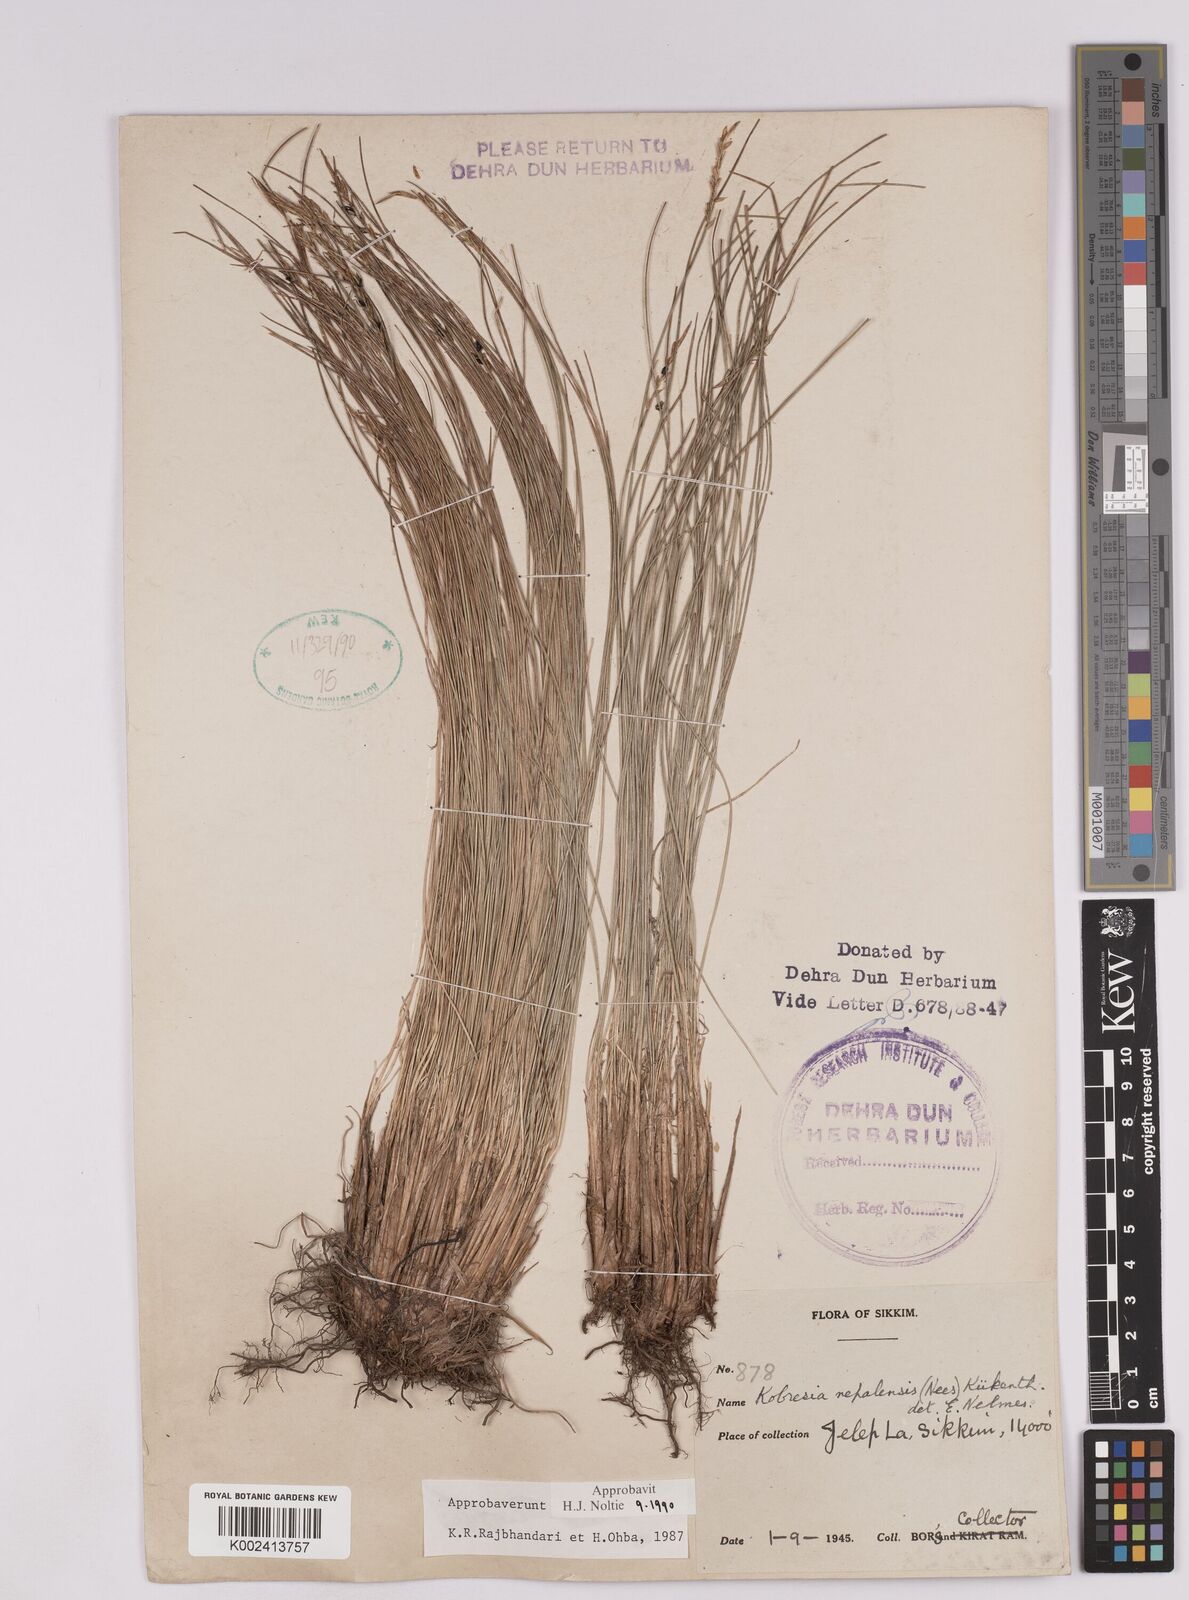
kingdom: Plantae
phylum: Tracheophyta
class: Liliopsida
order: Poales
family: Cyperaceae
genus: Carex
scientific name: Carex unciniiformis
